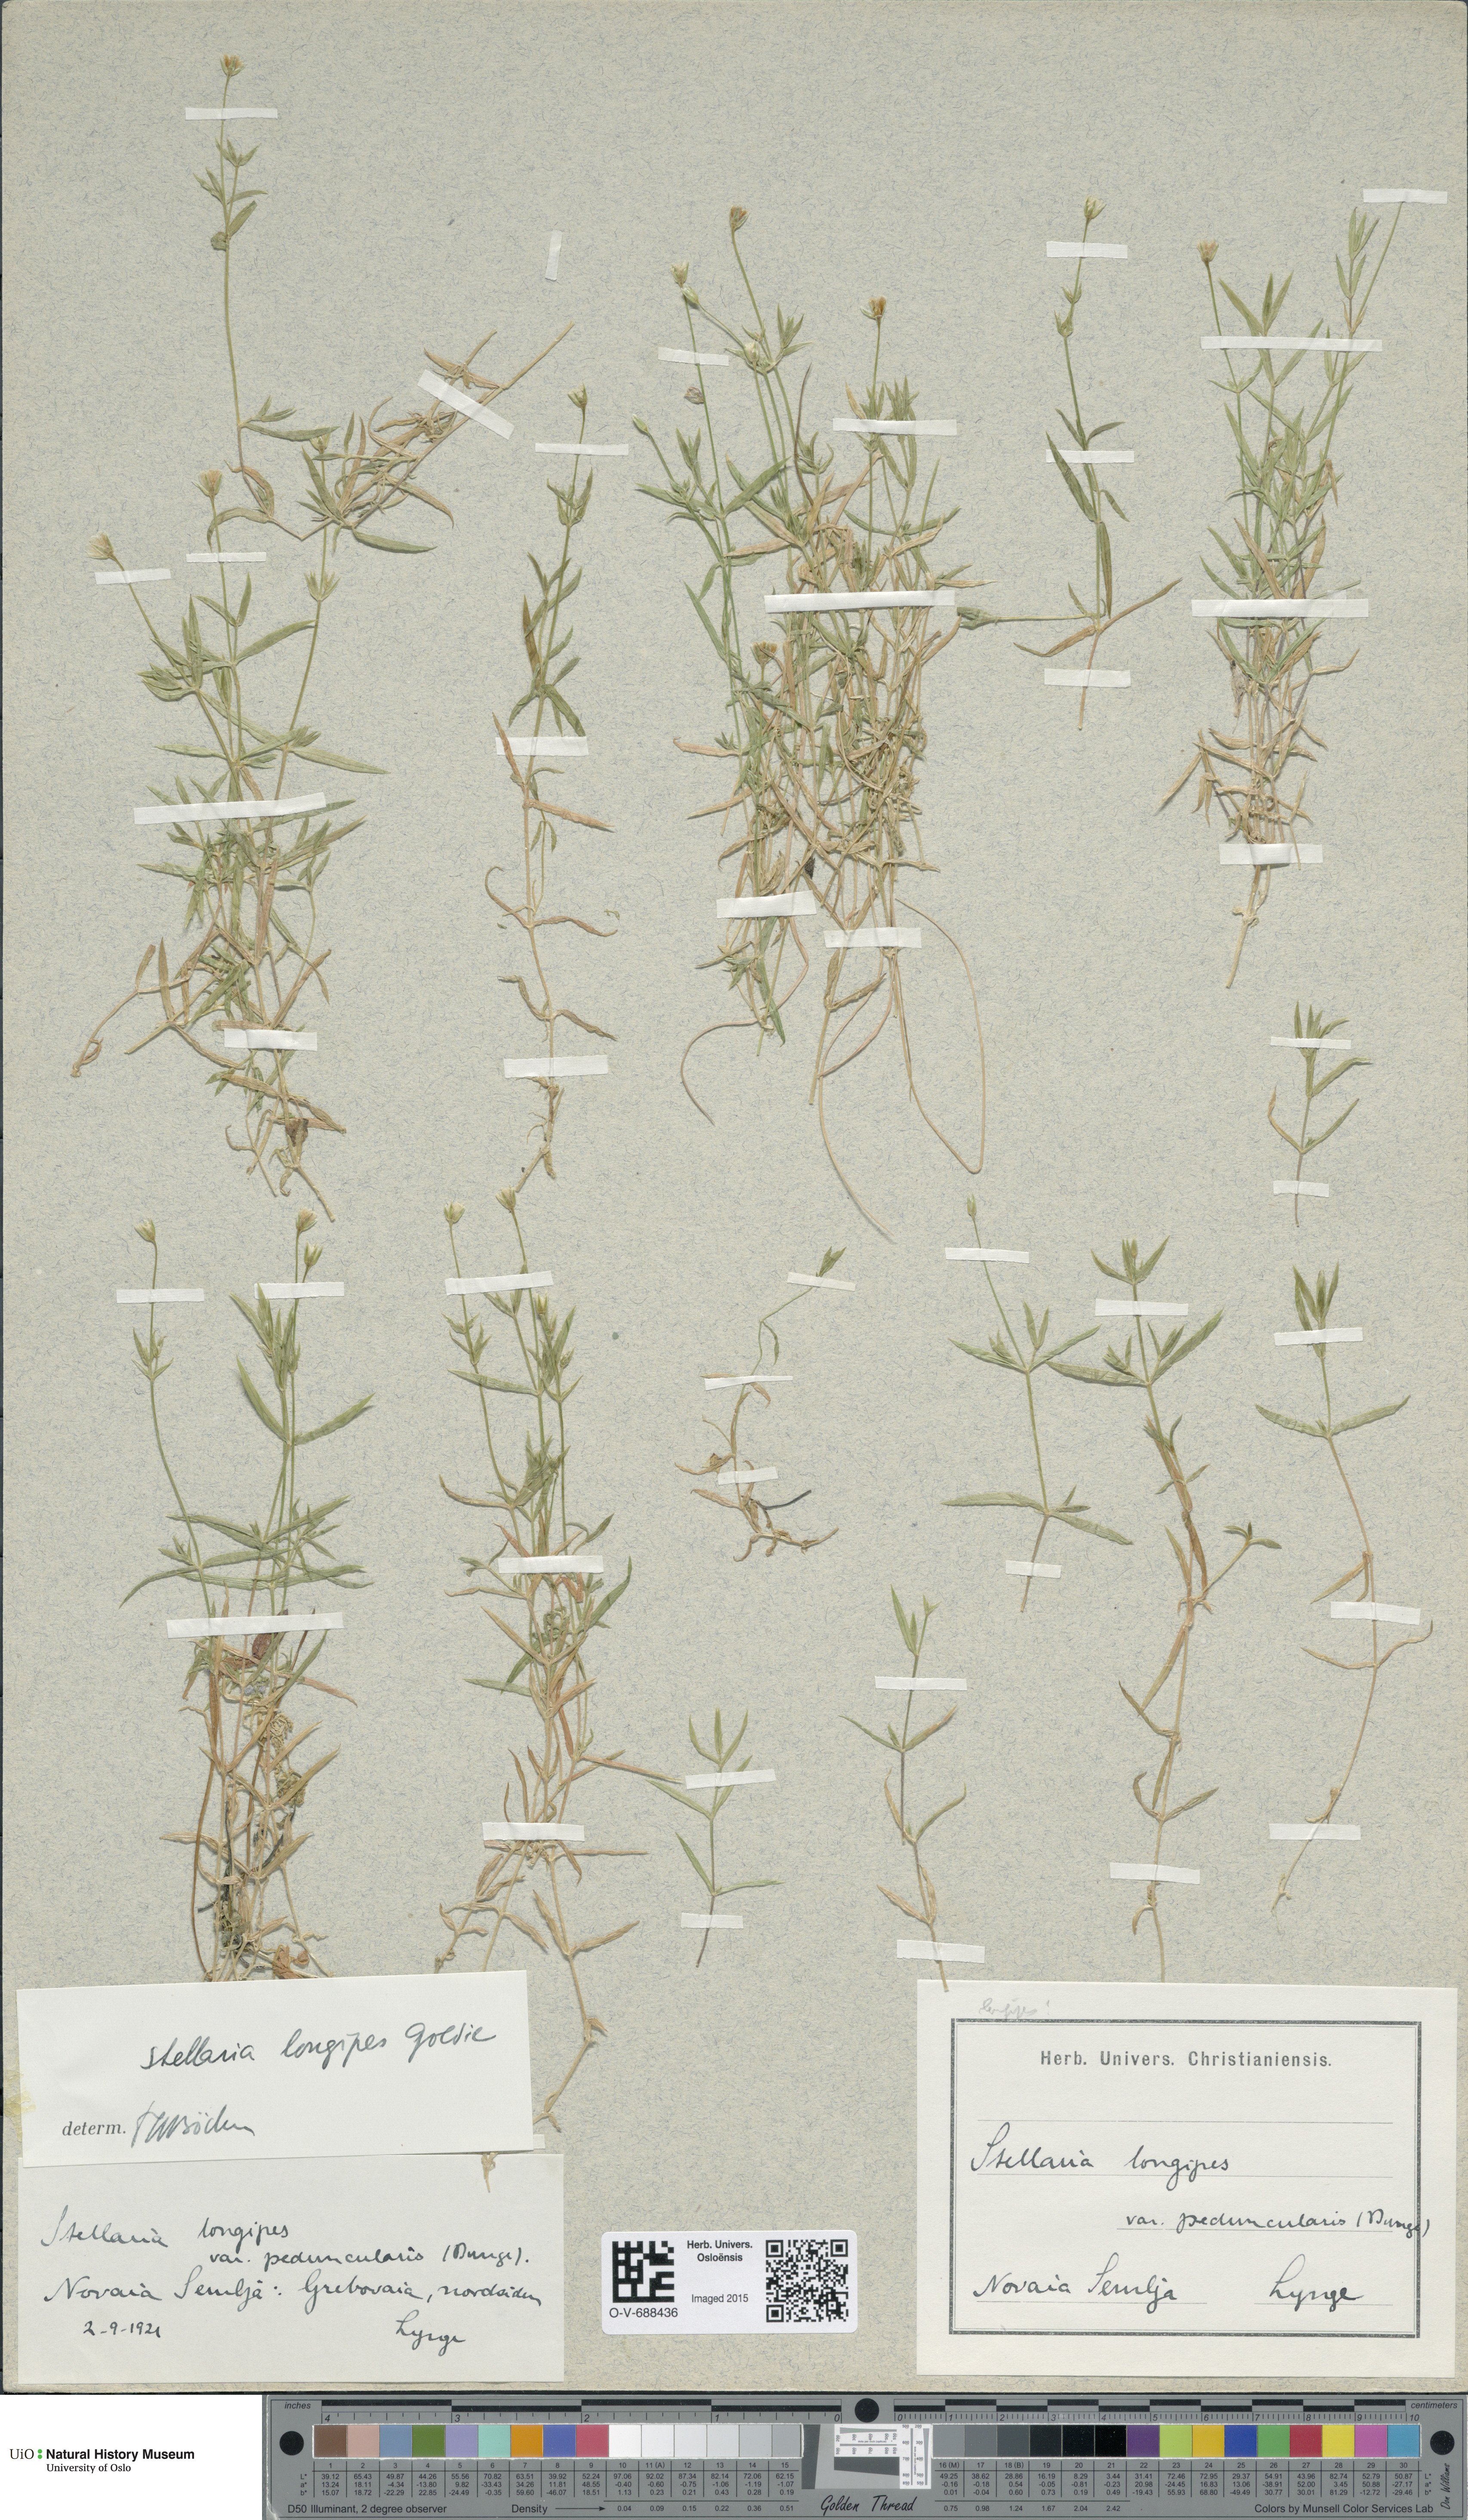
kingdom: Plantae
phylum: Tracheophyta
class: Magnoliopsida
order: Caryophyllales
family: Caryophyllaceae
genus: Stellaria
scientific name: Stellaria longipes
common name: Goldie's starwort
